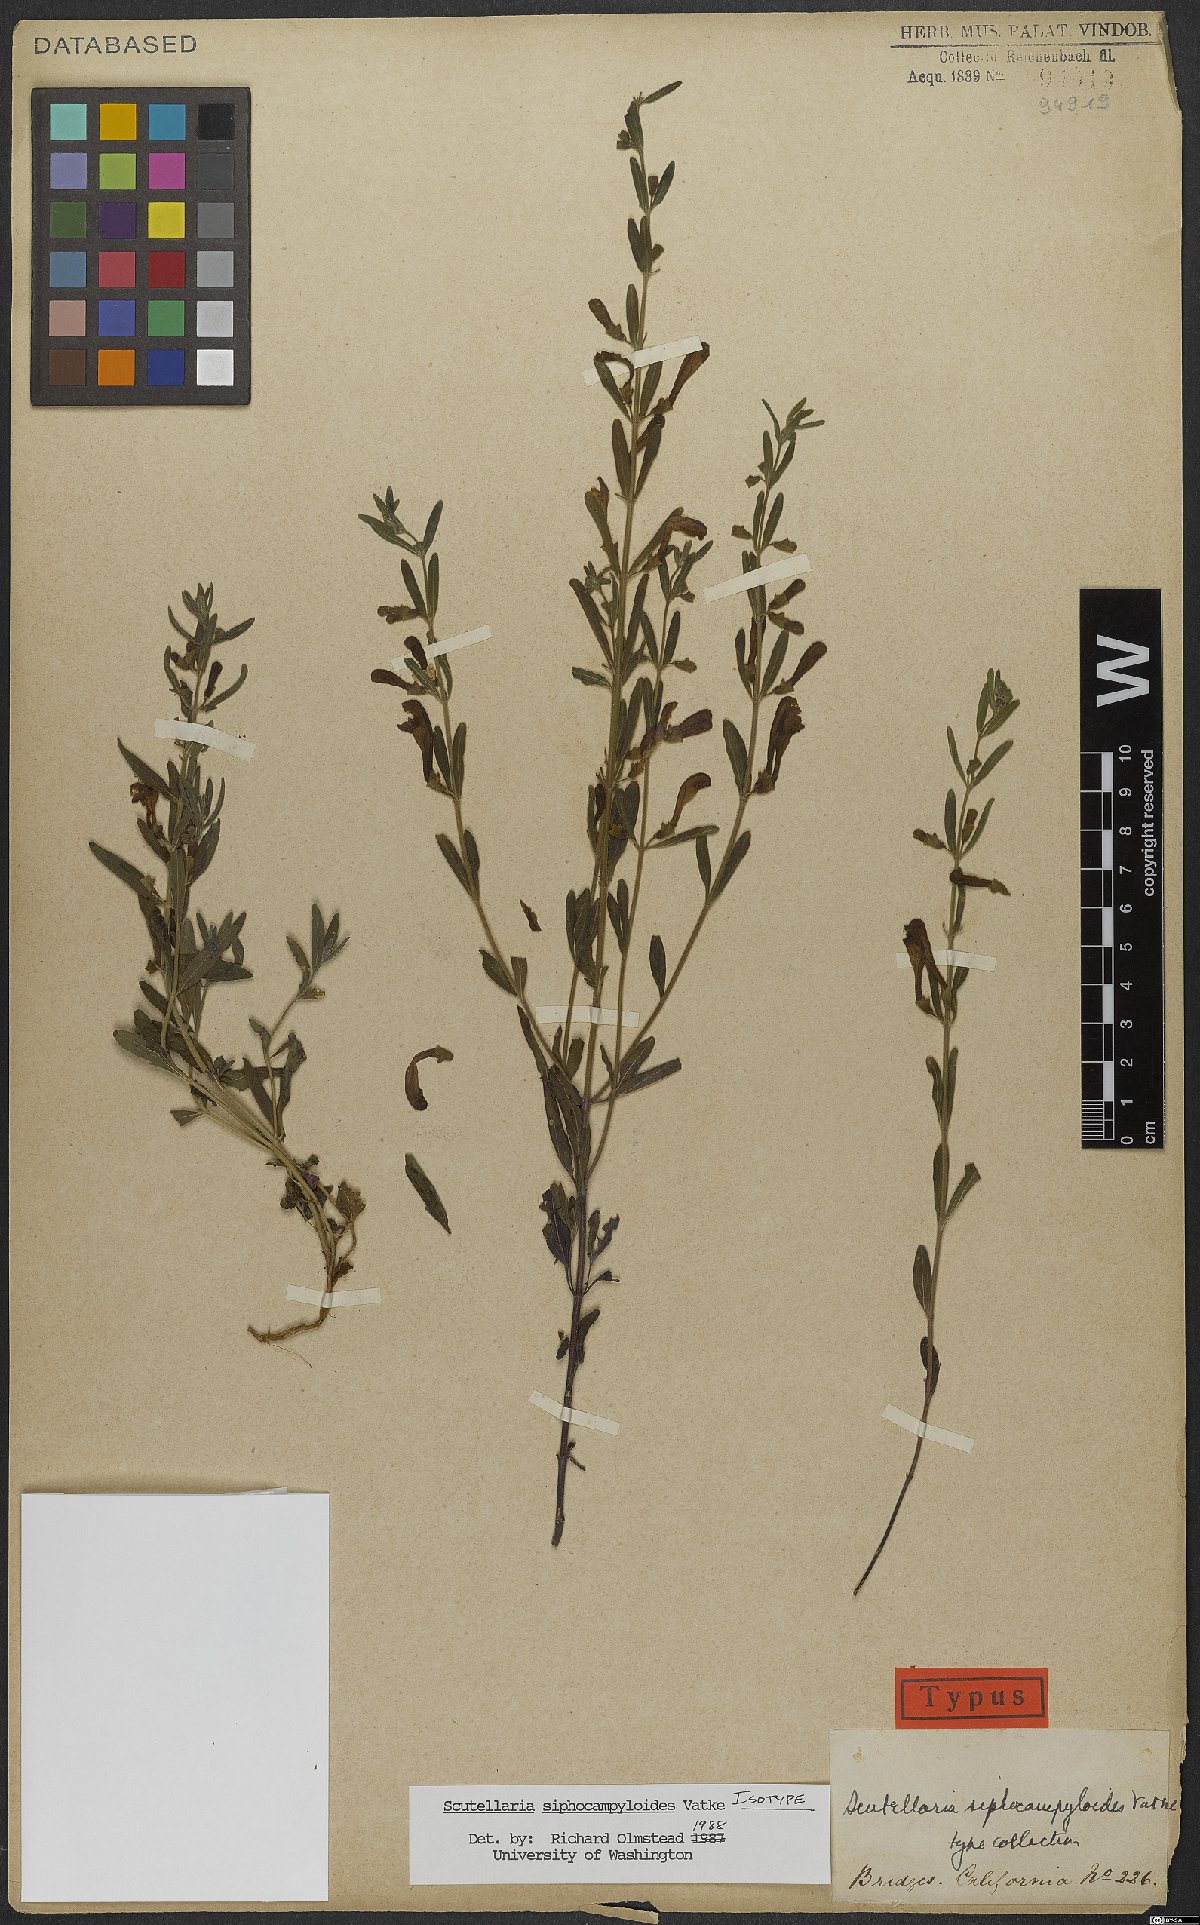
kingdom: Plantae
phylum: Tracheophyta
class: Magnoliopsida
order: Lamiales
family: Lamiaceae
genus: Scutellaria
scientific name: Scutellaria siphocampyloides
